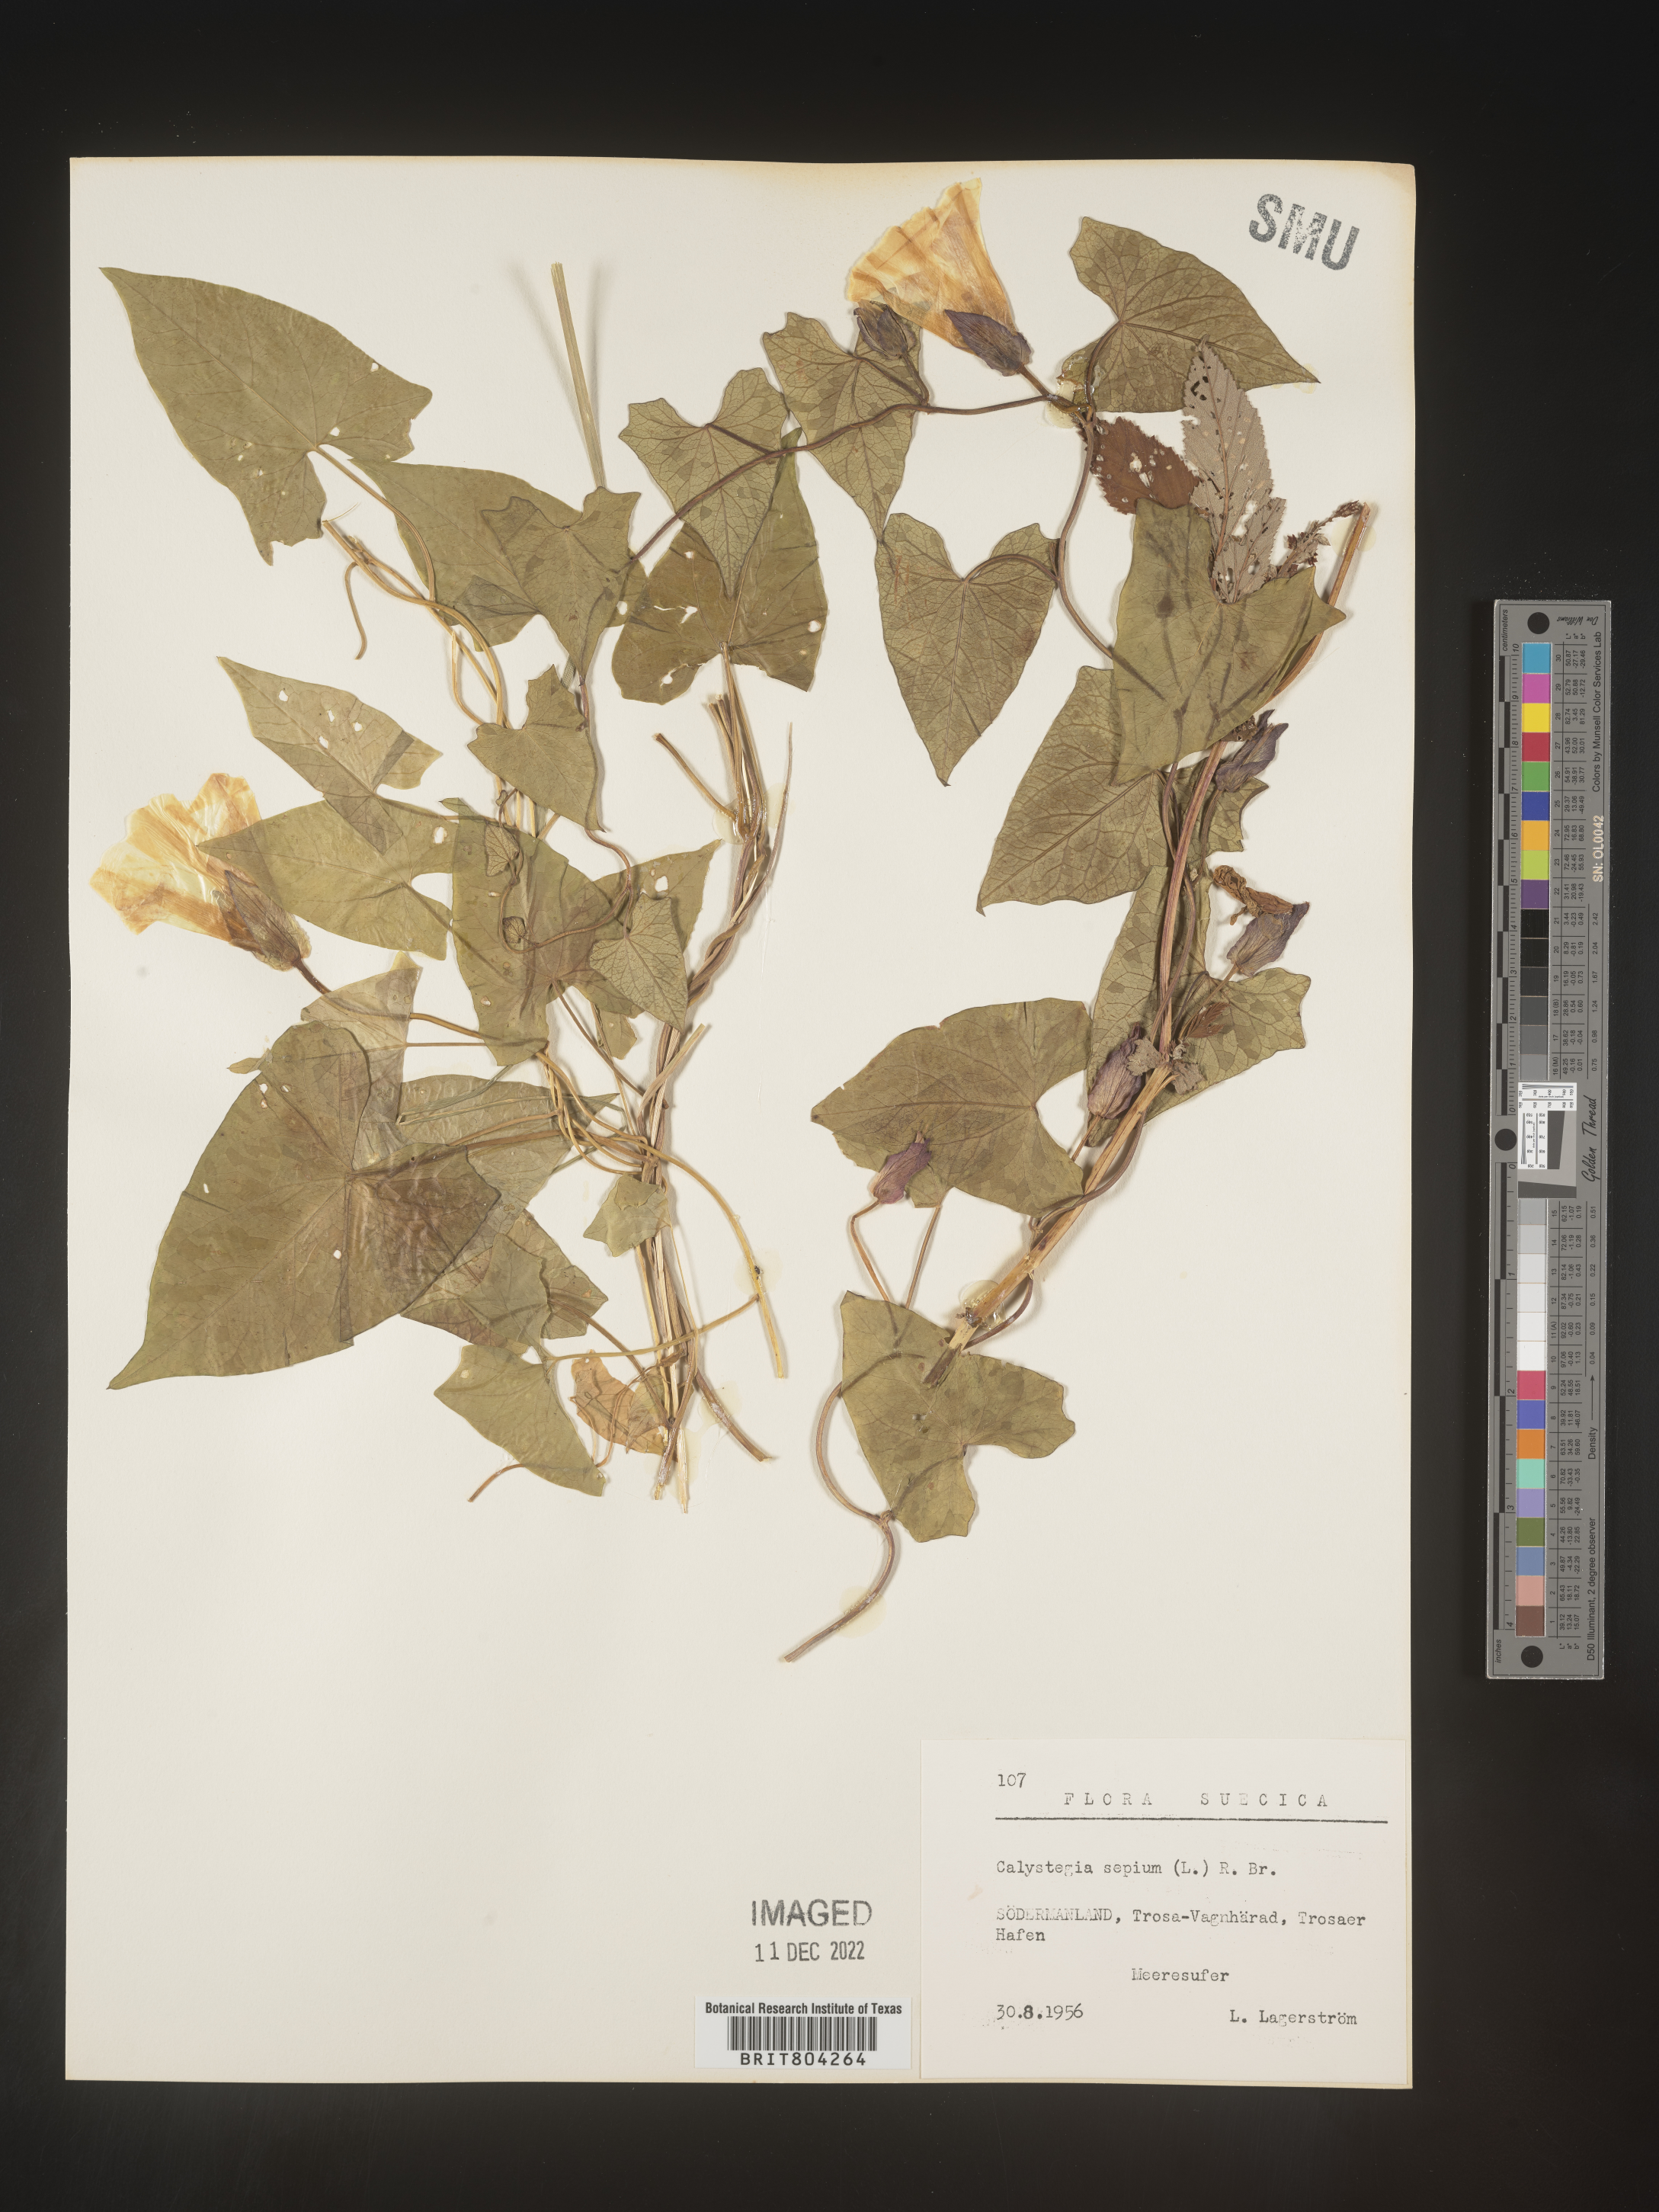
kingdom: Plantae
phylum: Tracheophyta
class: Magnoliopsida
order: Solanales
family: Convolvulaceae
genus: Calystegia
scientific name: Calystegia
